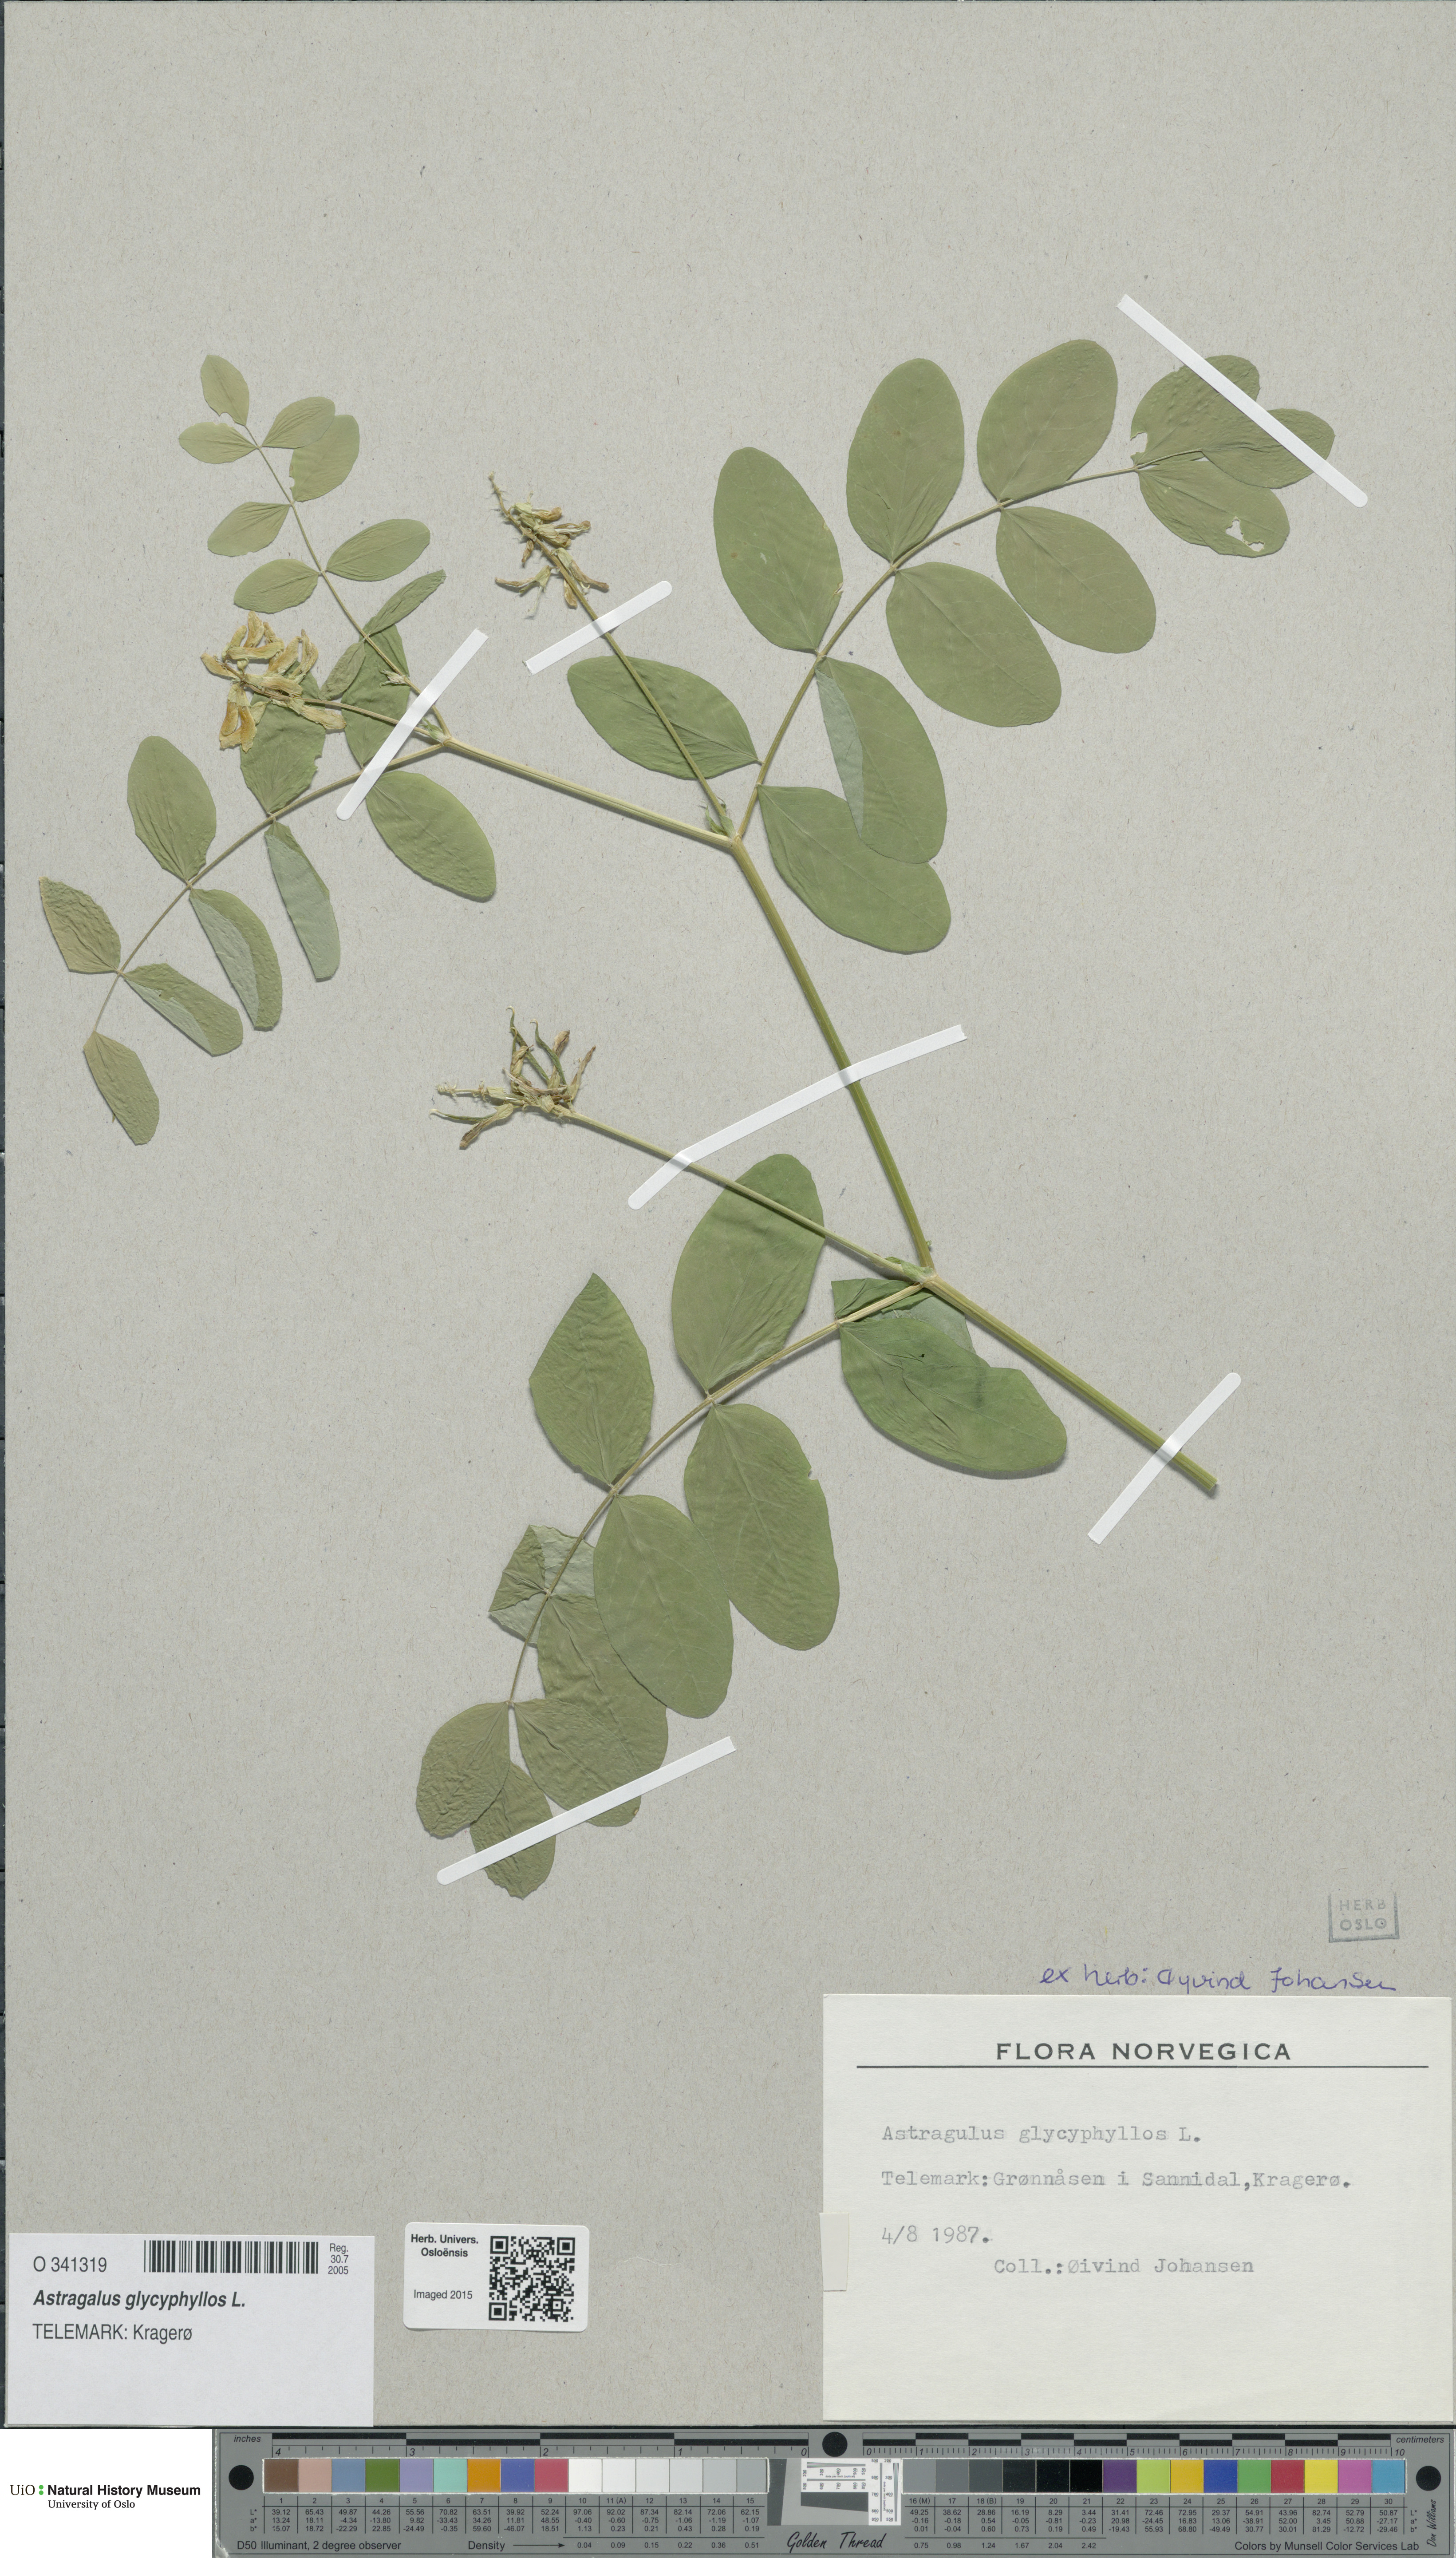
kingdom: Plantae
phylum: Tracheophyta
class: Magnoliopsida
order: Fabales
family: Fabaceae
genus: Astragalus
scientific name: Astragalus glycyphyllos
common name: Wild liquorice
